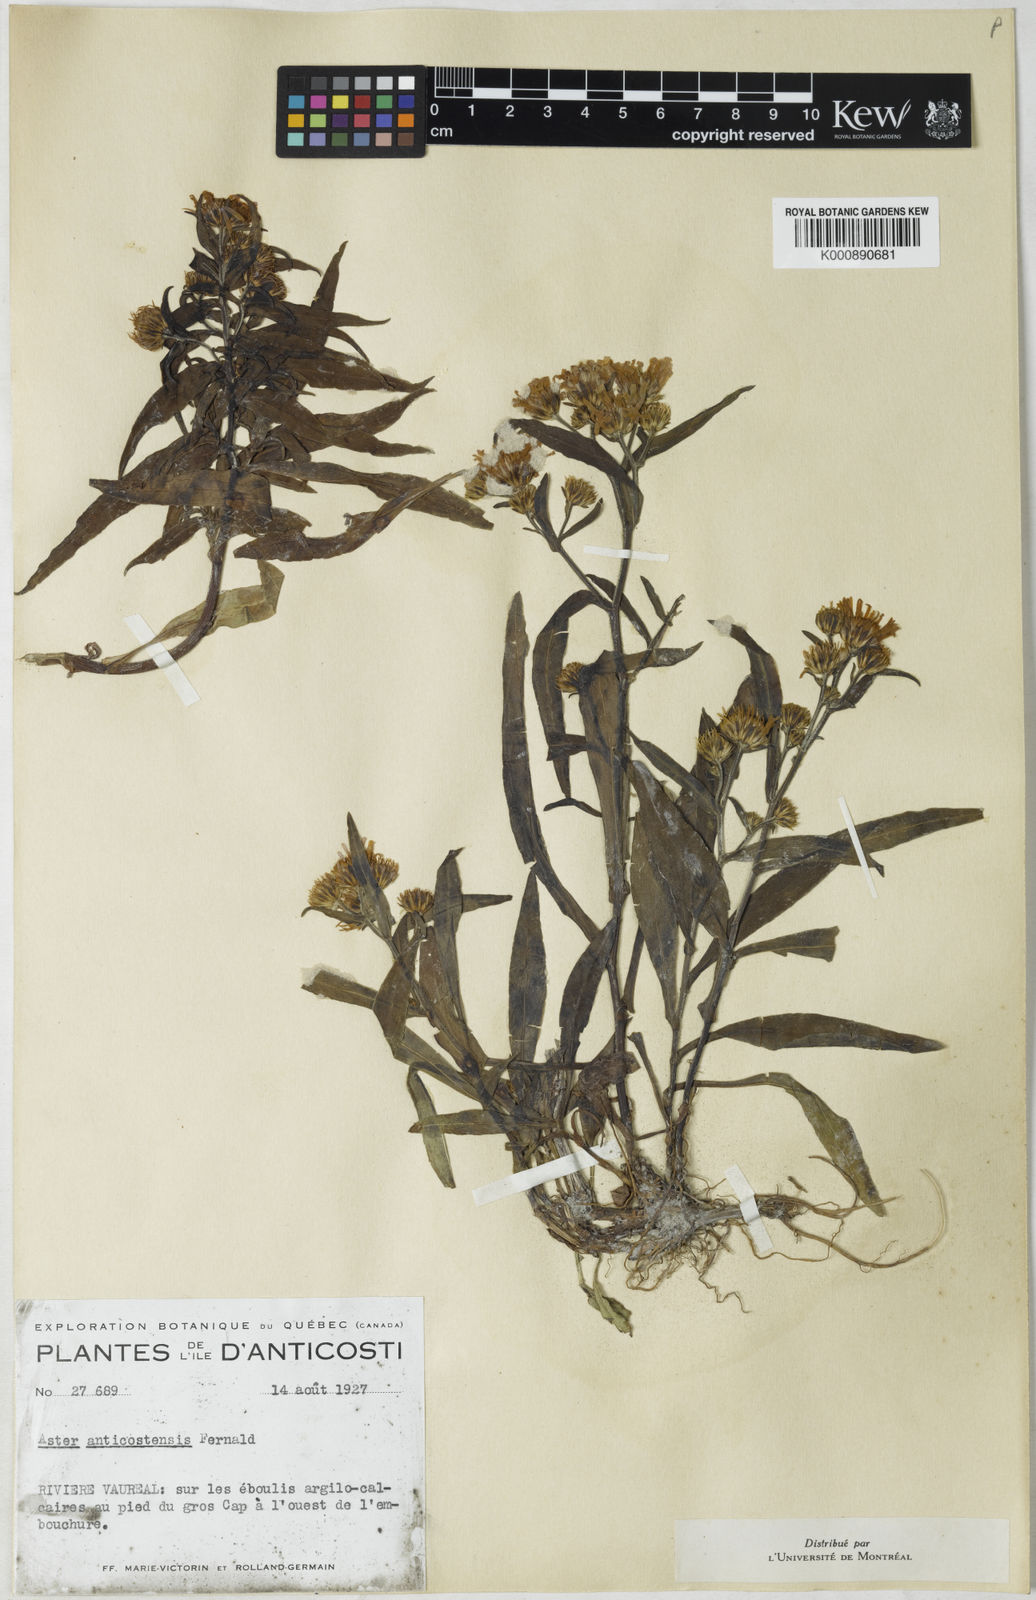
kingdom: Plantae
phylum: Tracheophyta
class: Magnoliopsida
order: Asterales
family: Asteraceae
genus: Symphyotrichum
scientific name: Symphyotrichum anticostense
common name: Anticosti island aster
